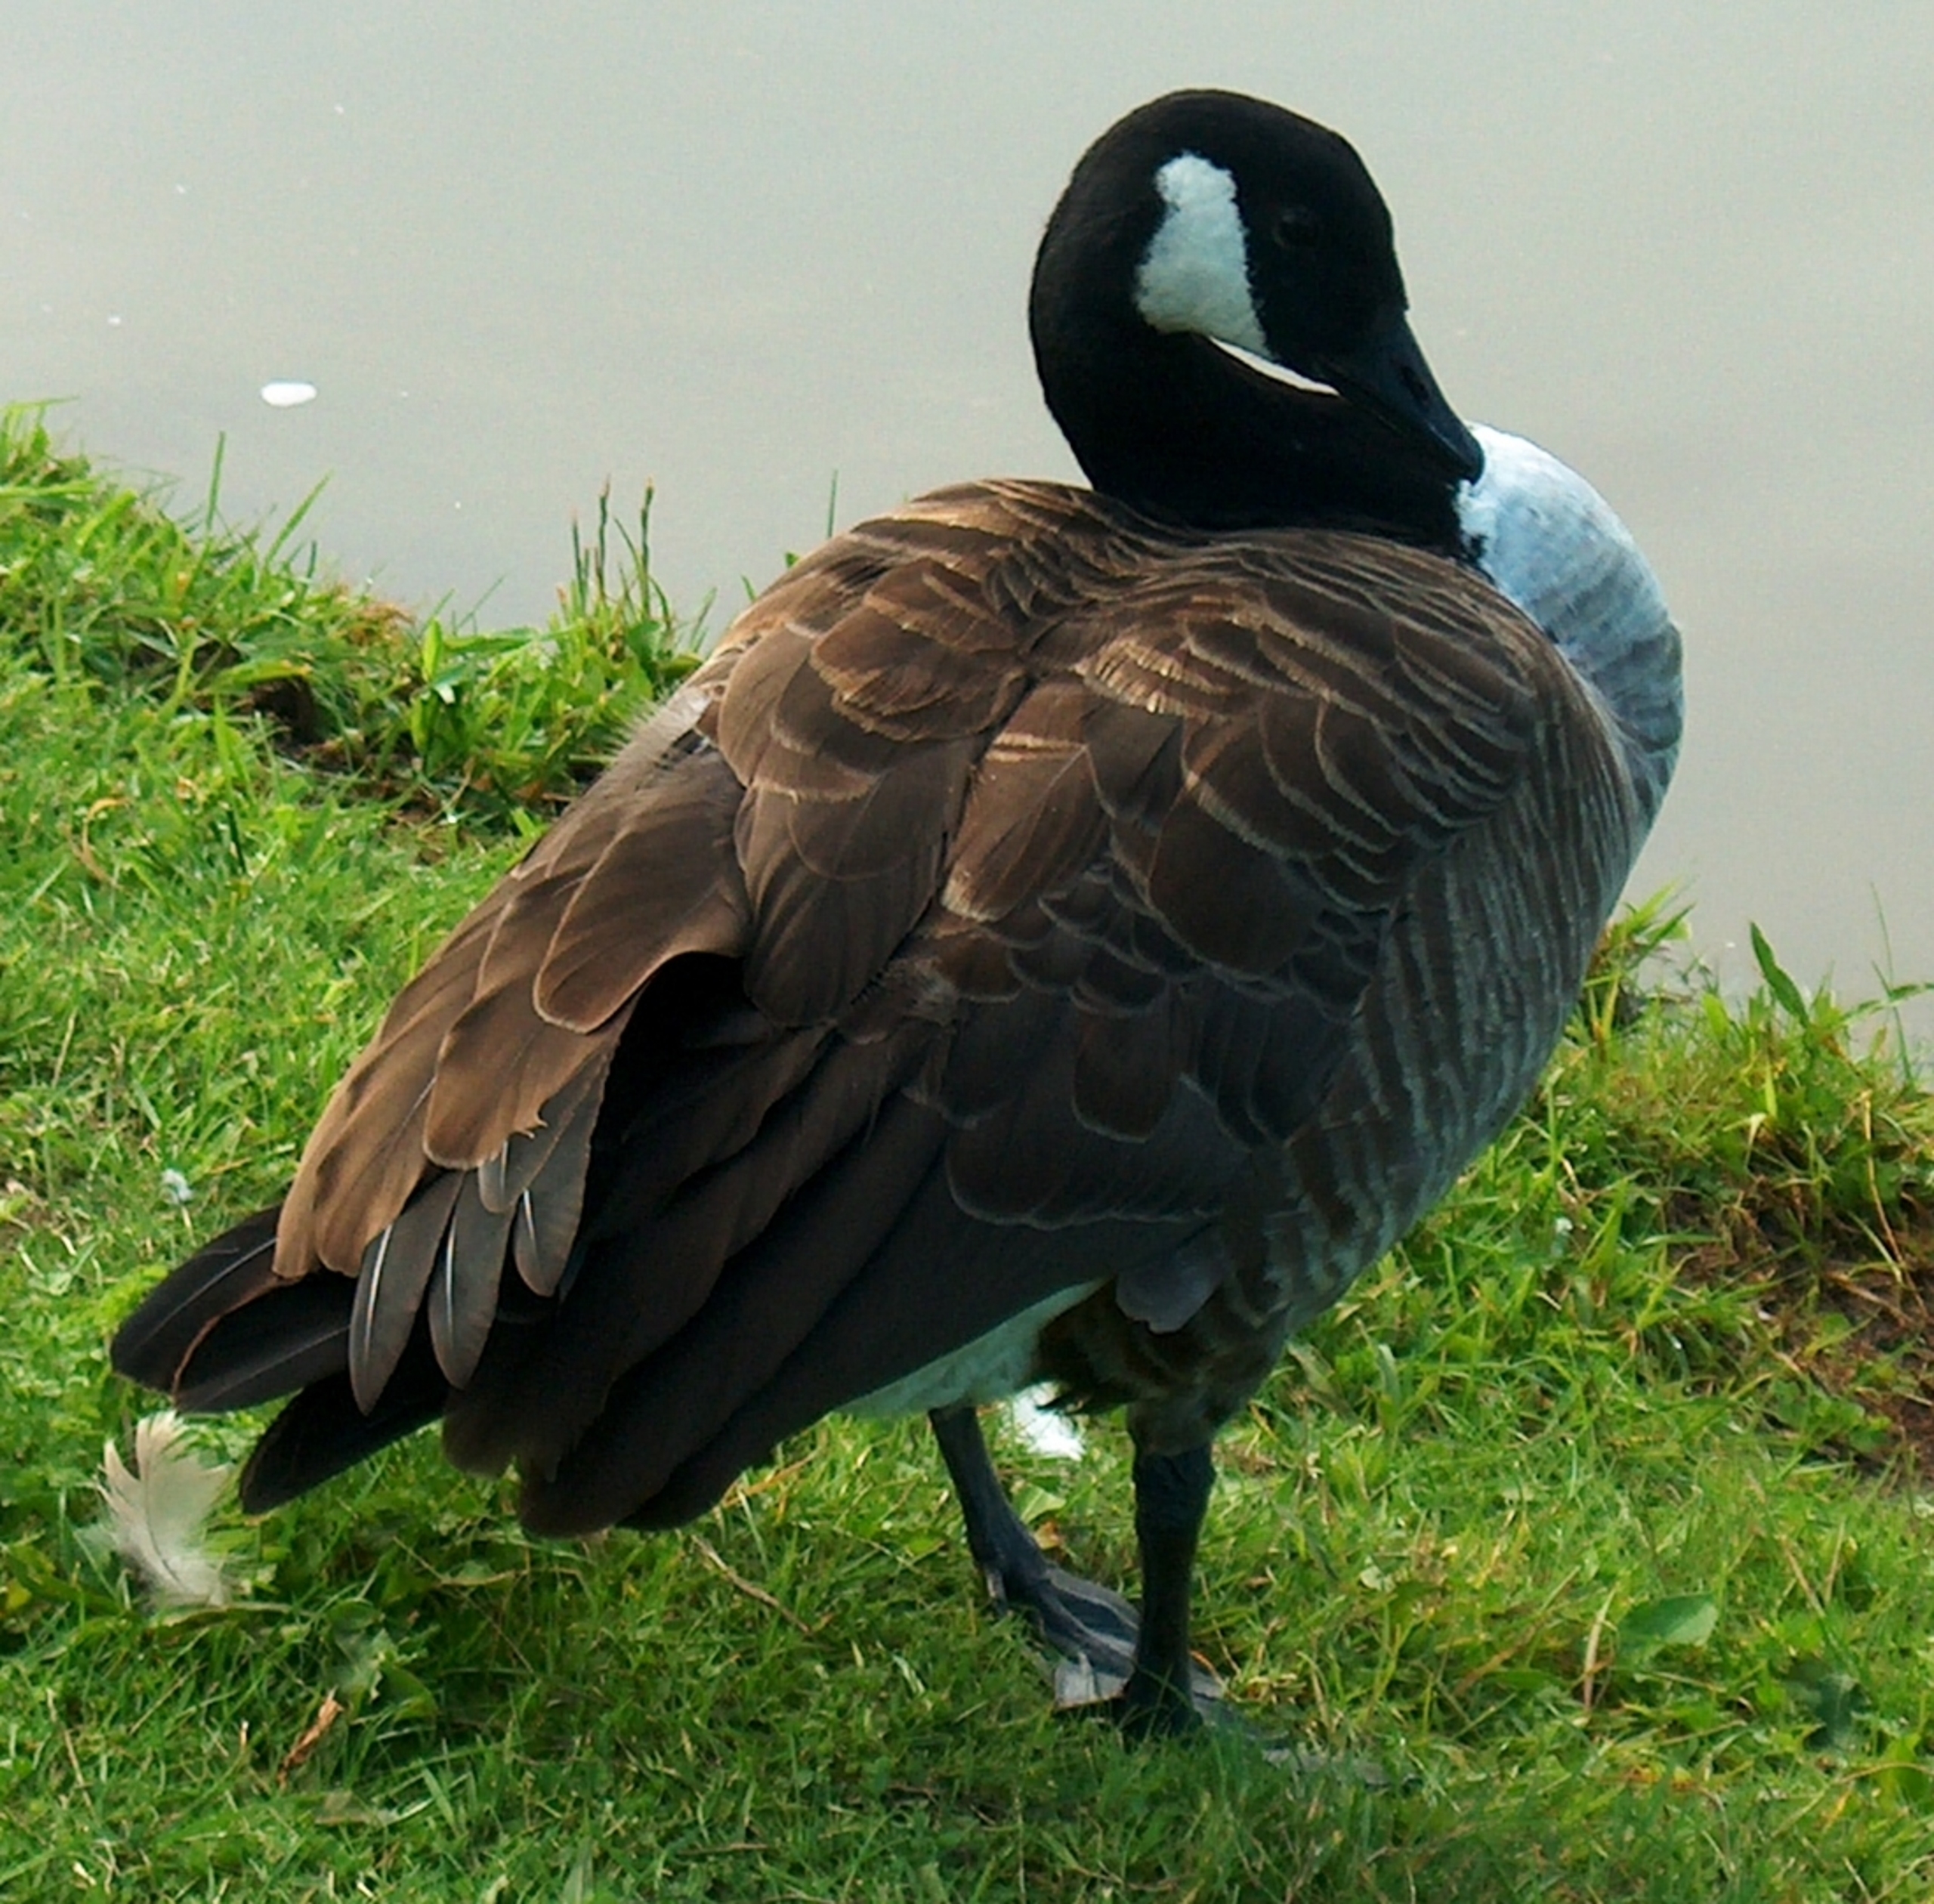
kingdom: Animalia
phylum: Chordata
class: Aves
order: Anseriformes
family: Anatidae
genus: Branta
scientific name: Branta canadensis
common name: Canadagås
